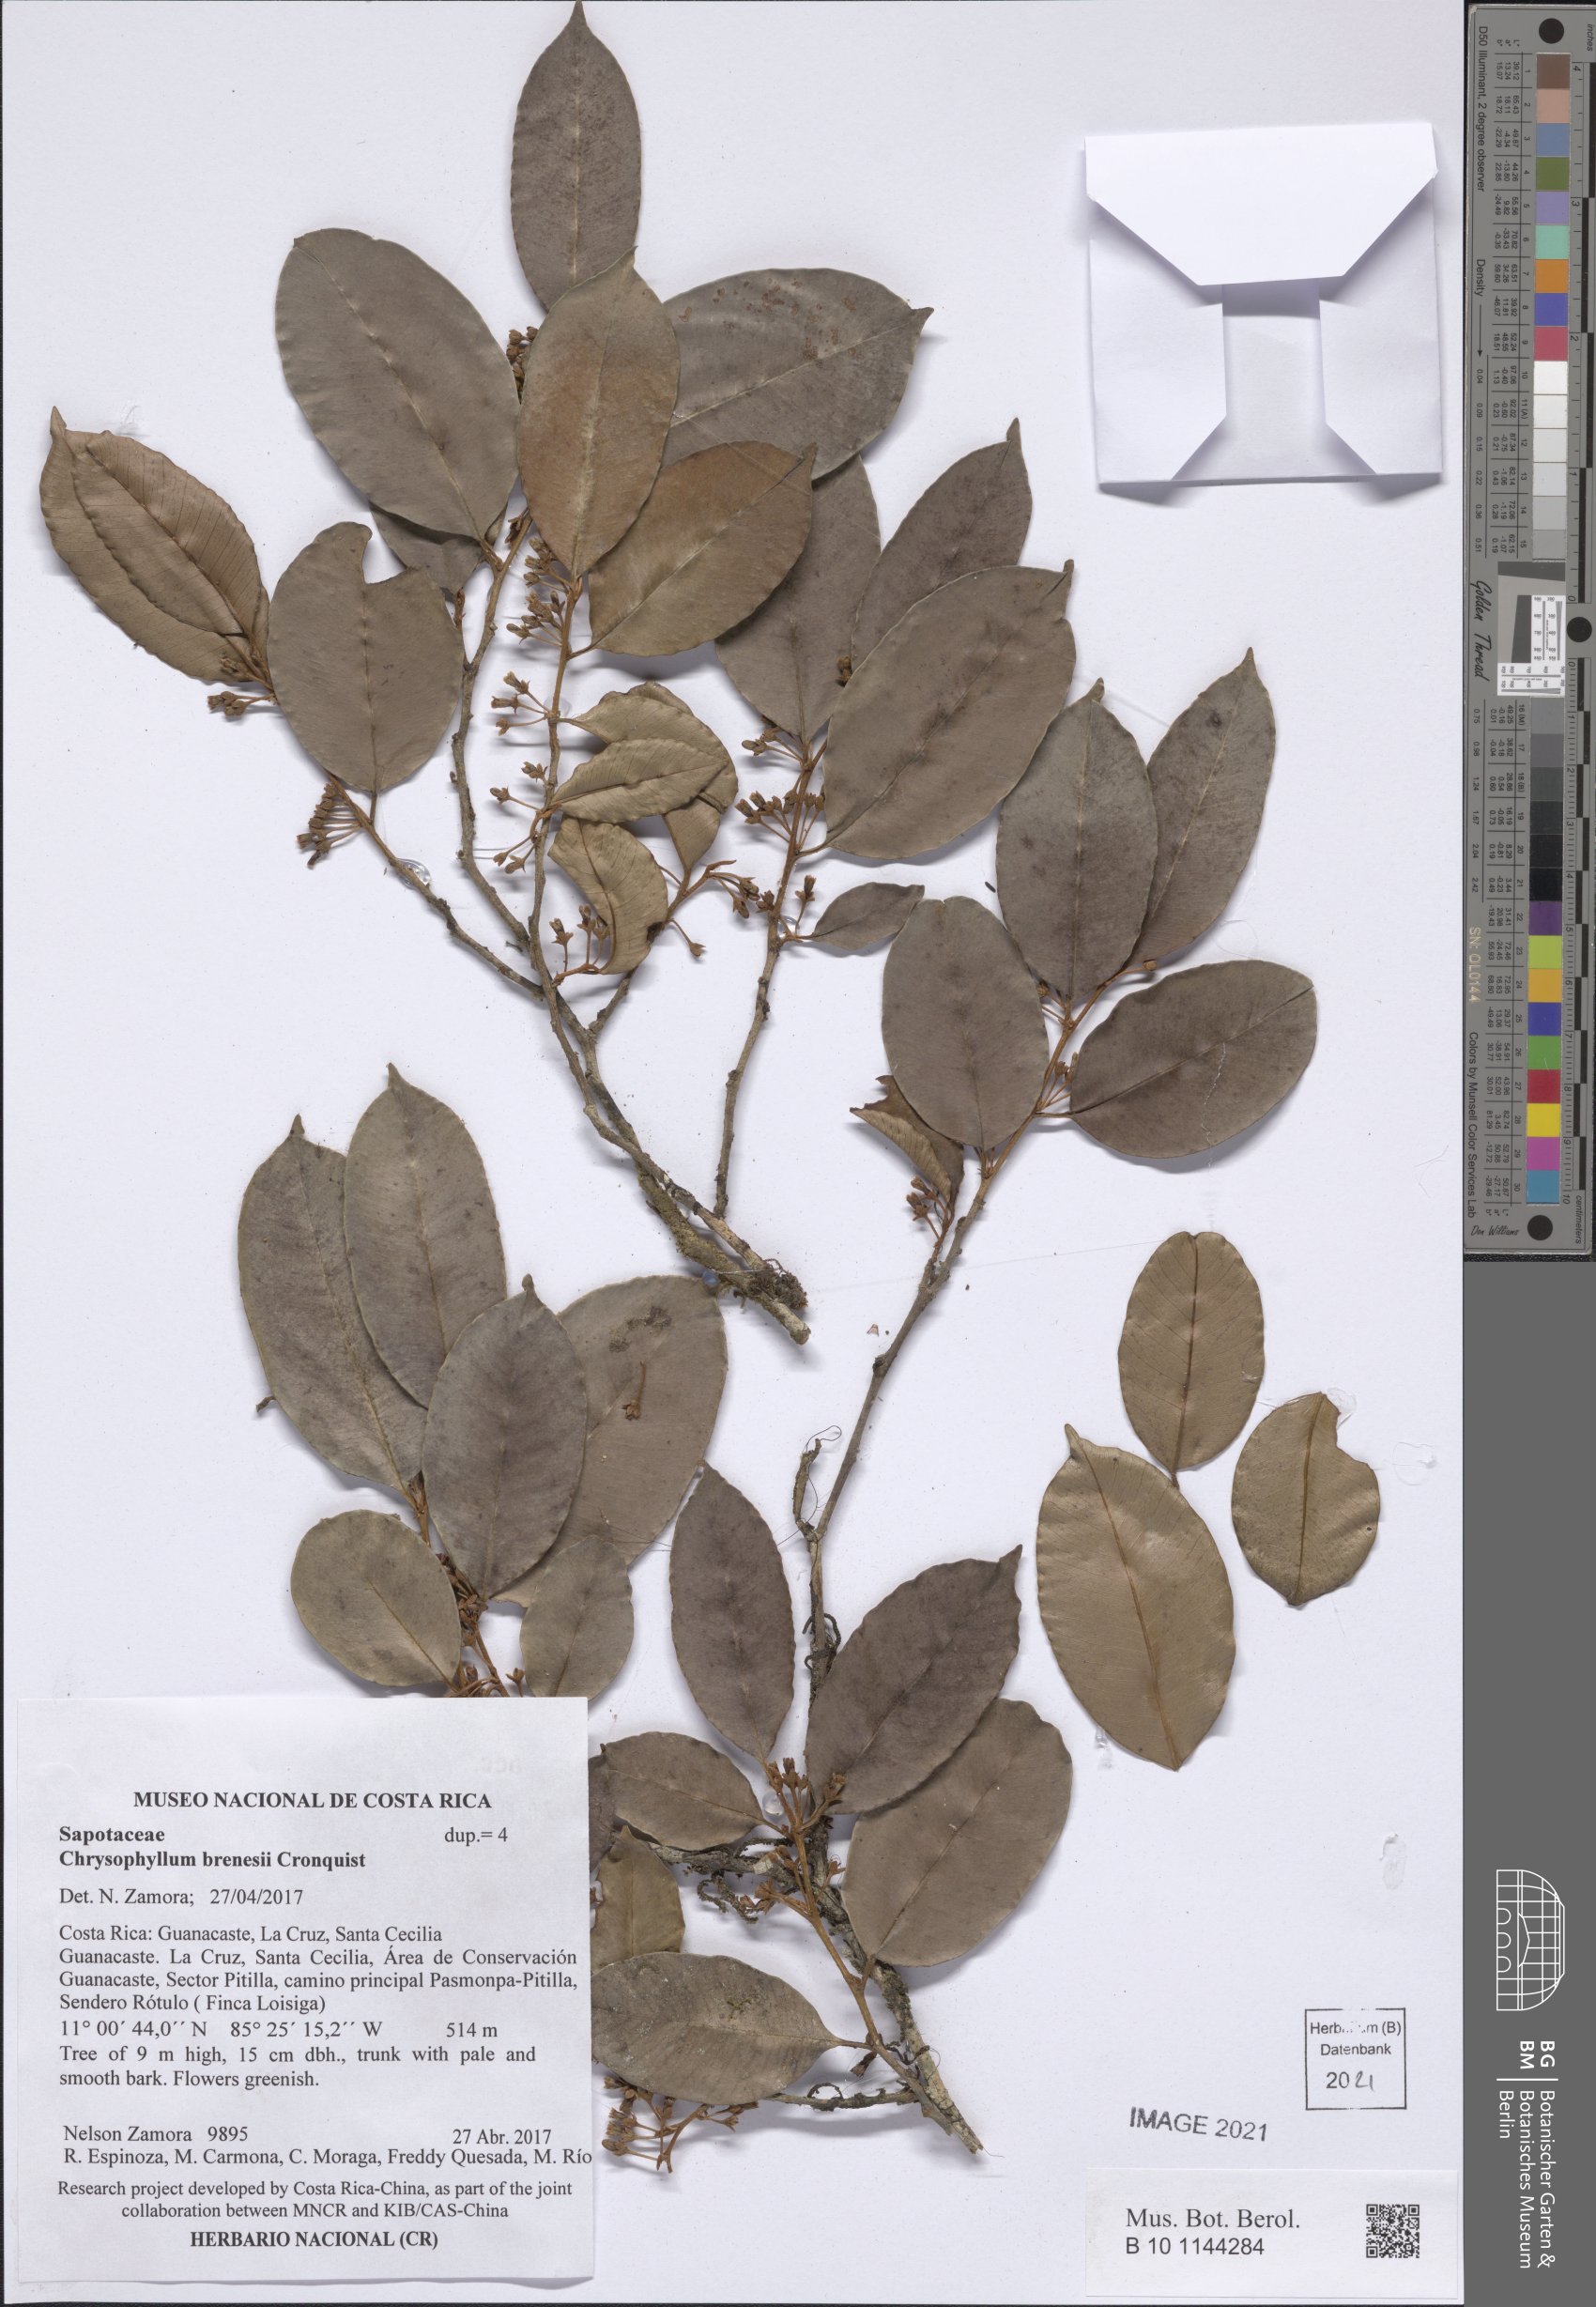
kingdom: Plantae
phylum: Tracheophyta
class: Magnoliopsida
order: Ericales
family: Sapotaceae
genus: Chrysophyllum
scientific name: Chrysophyllum brenesii
